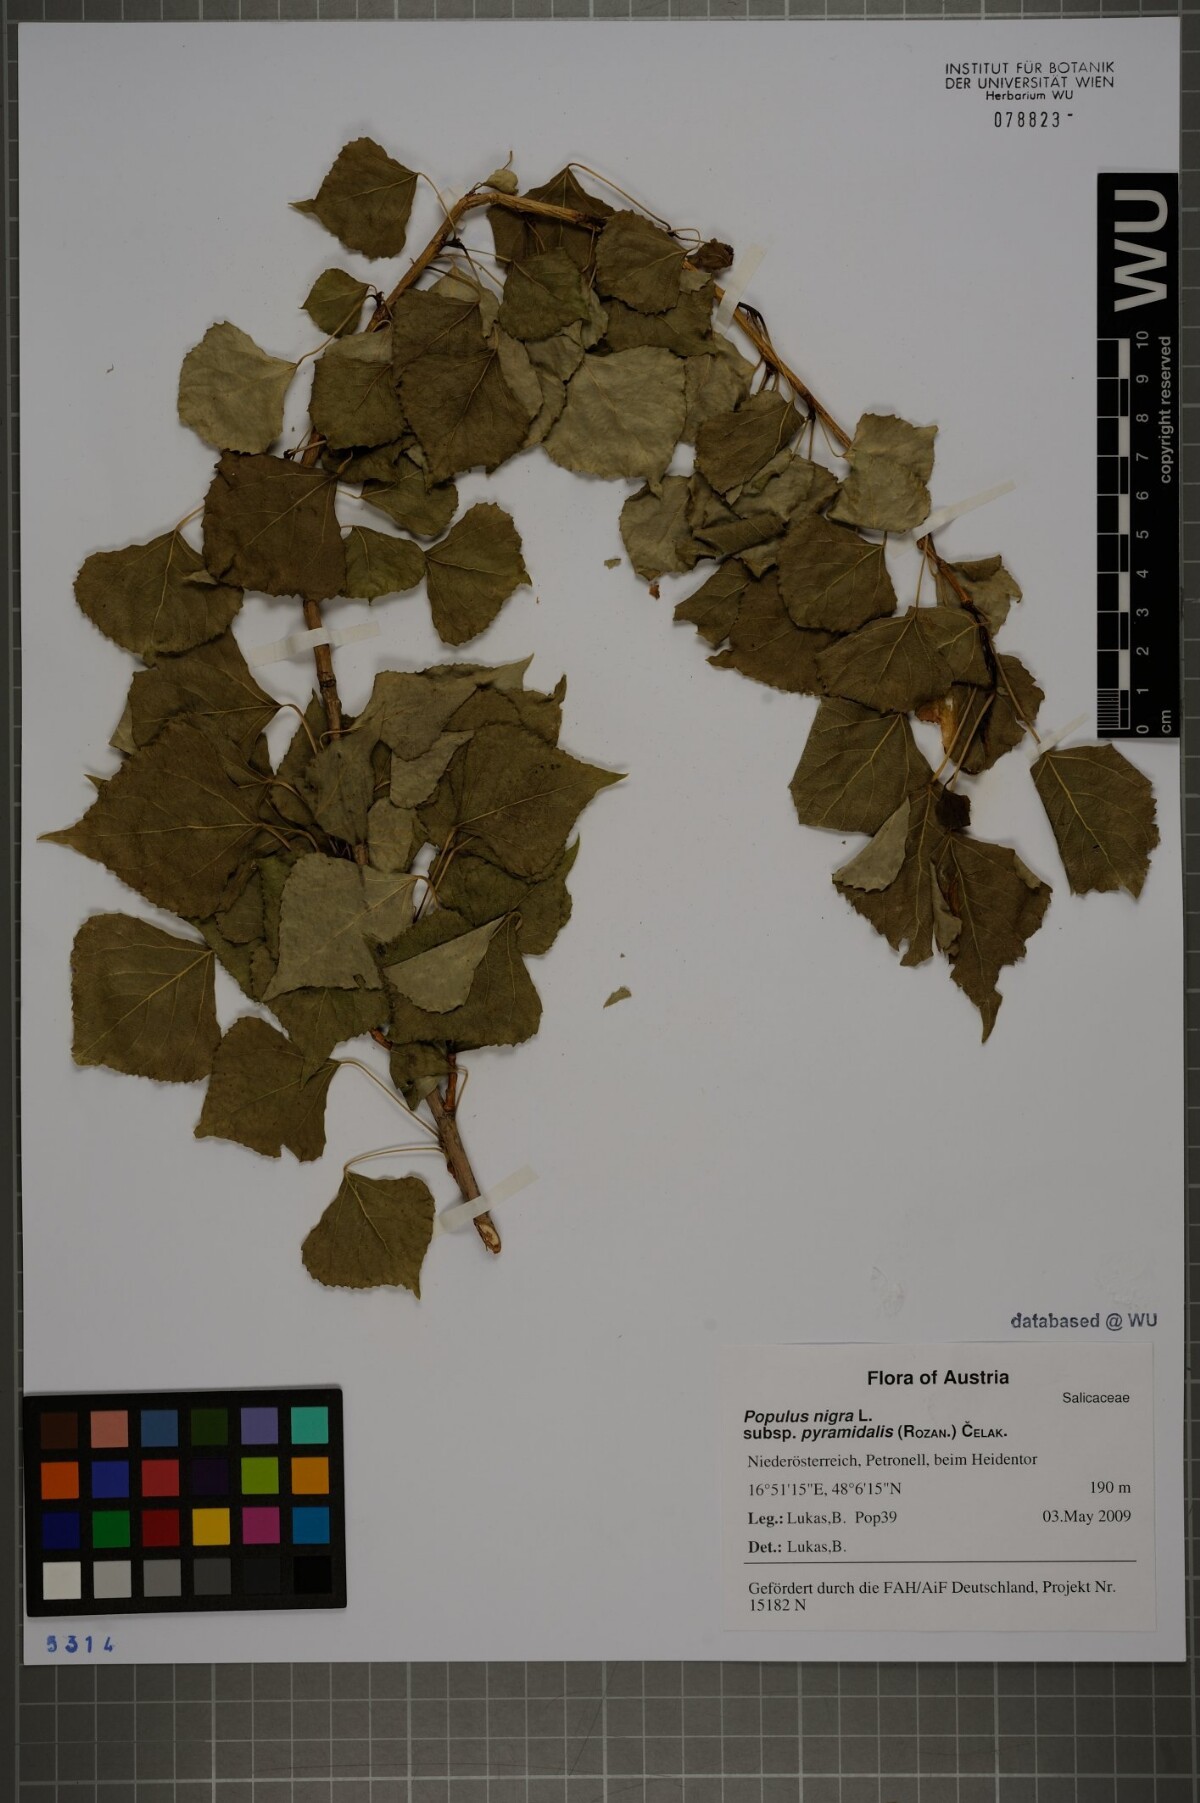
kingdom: Plantae
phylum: Tracheophyta
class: Magnoliopsida
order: Malpighiales
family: Salicaceae
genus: Populus
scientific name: Populus nigra
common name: Black poplar
